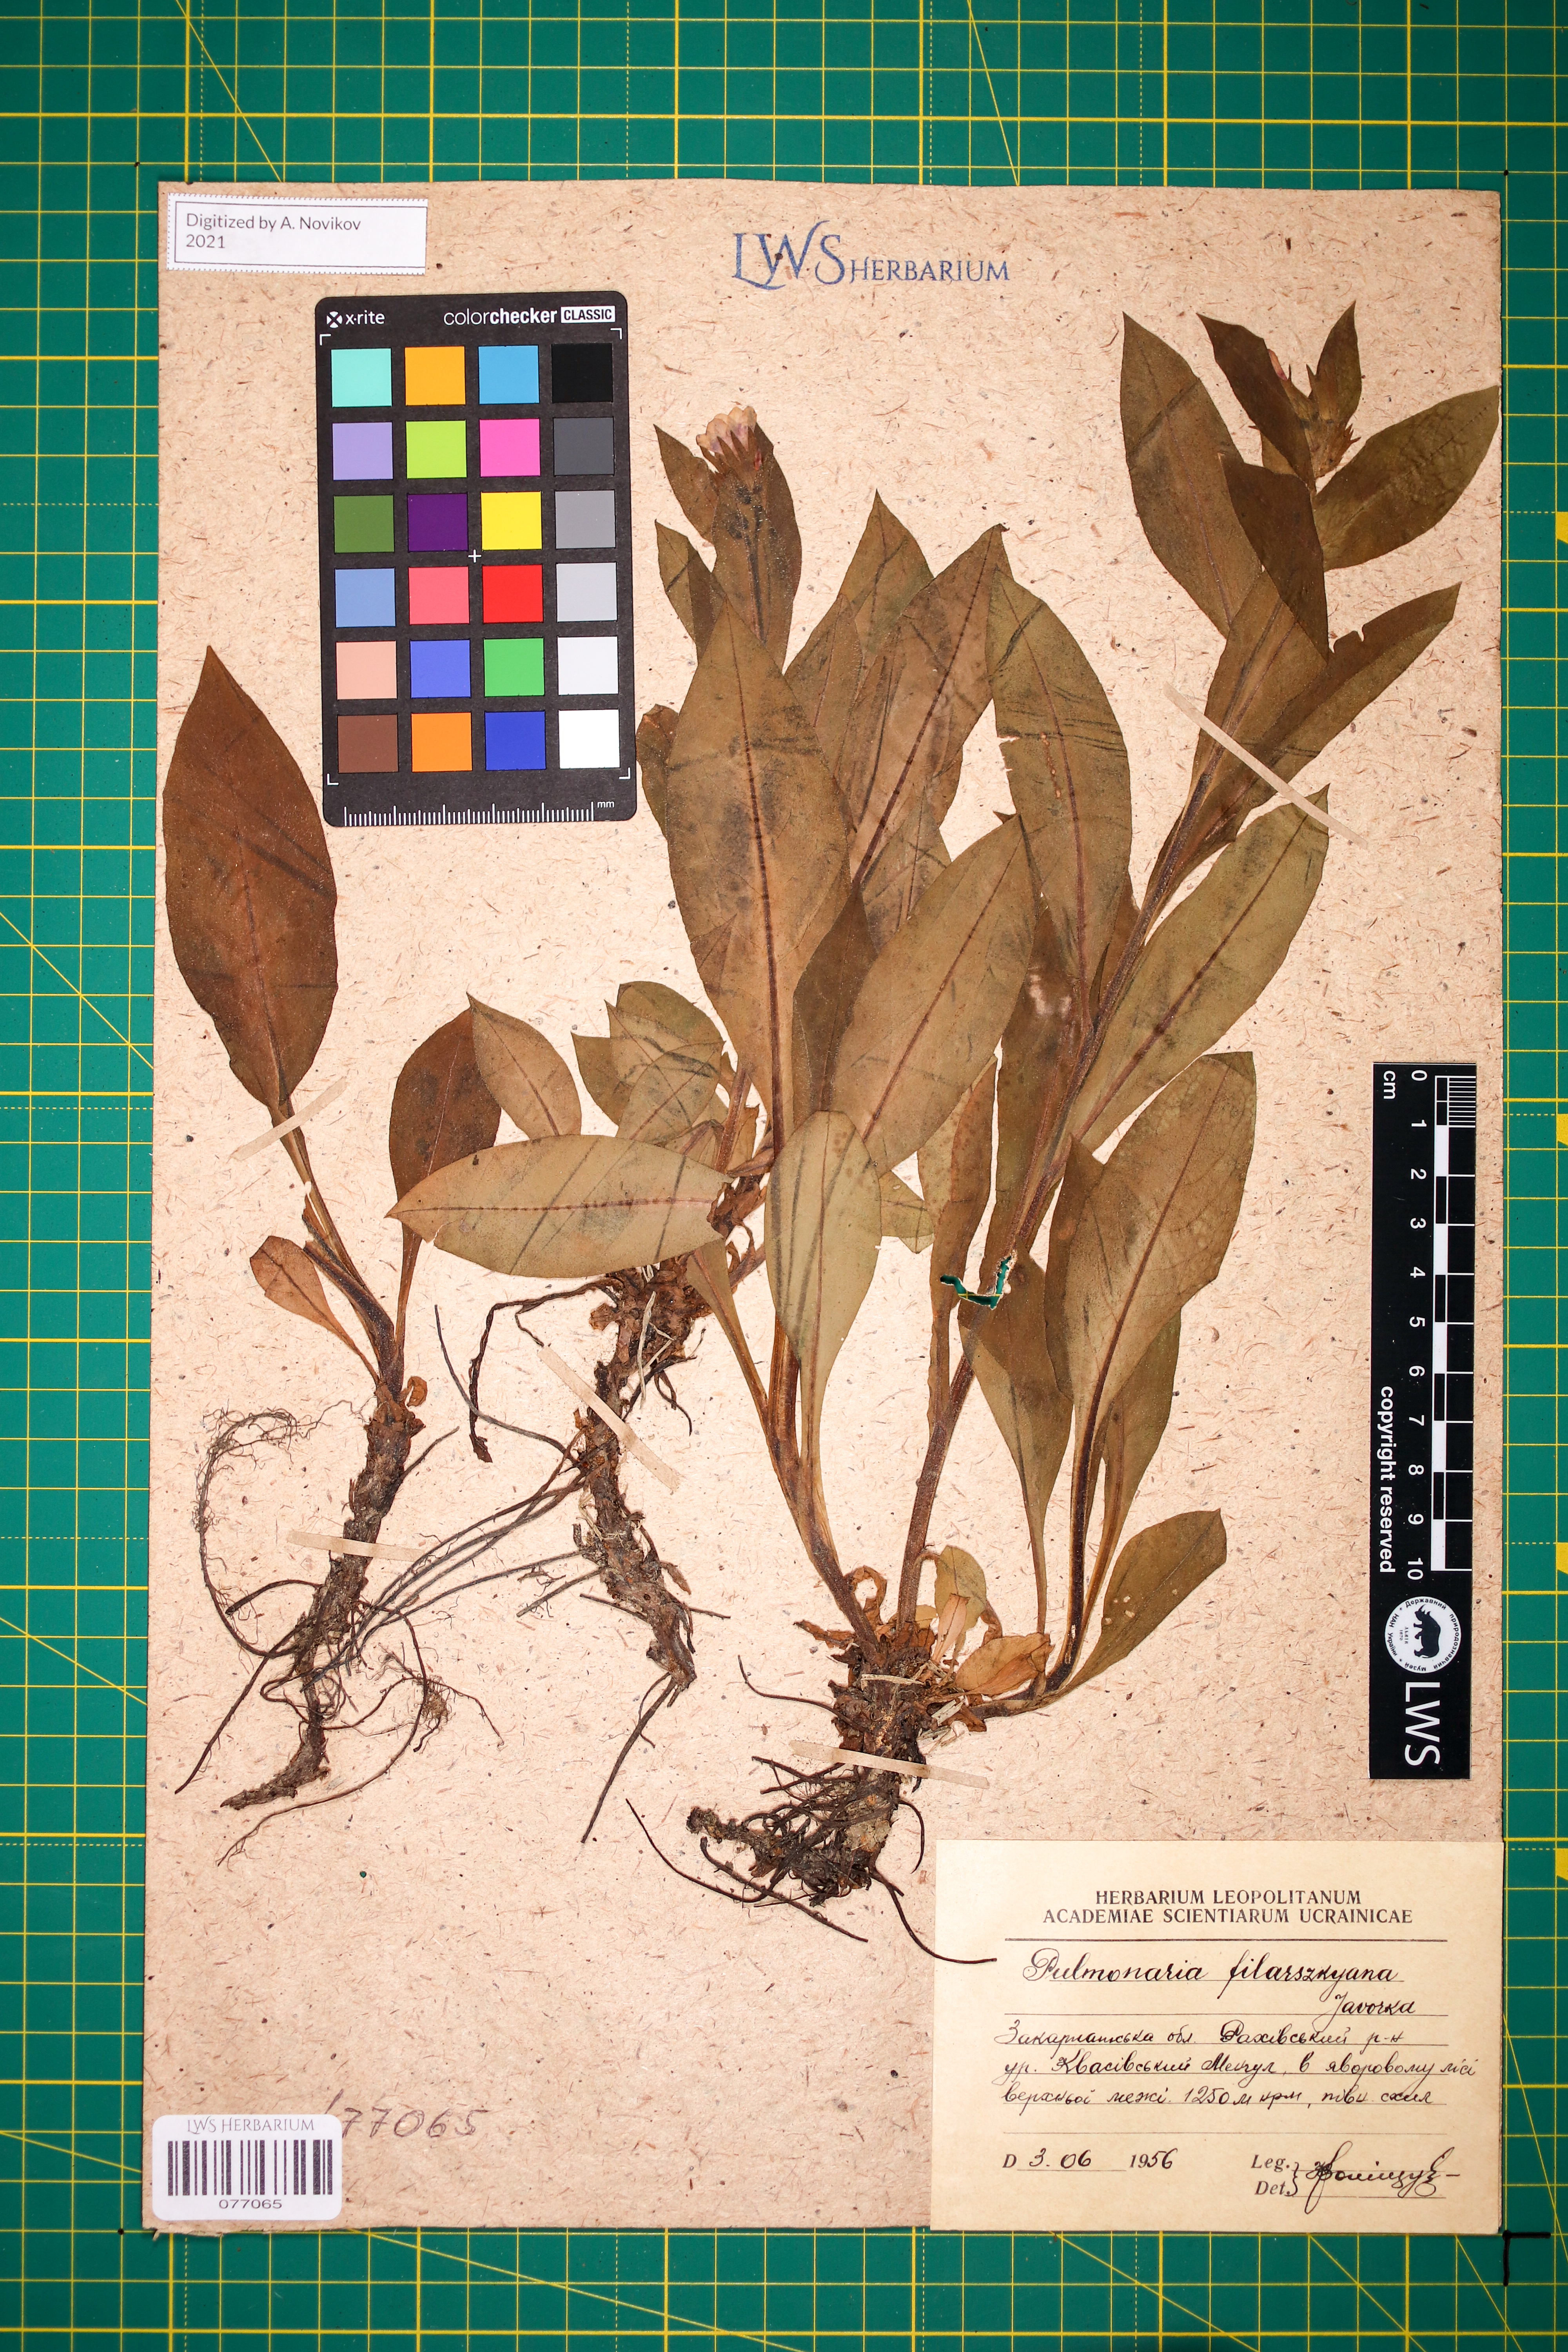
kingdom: Plantae
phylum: Tracheophyta
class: Magnoliopsida
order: Boraginales
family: Boraginaceae
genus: Pulmonaria
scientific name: Pulmonaria filarszkyana
